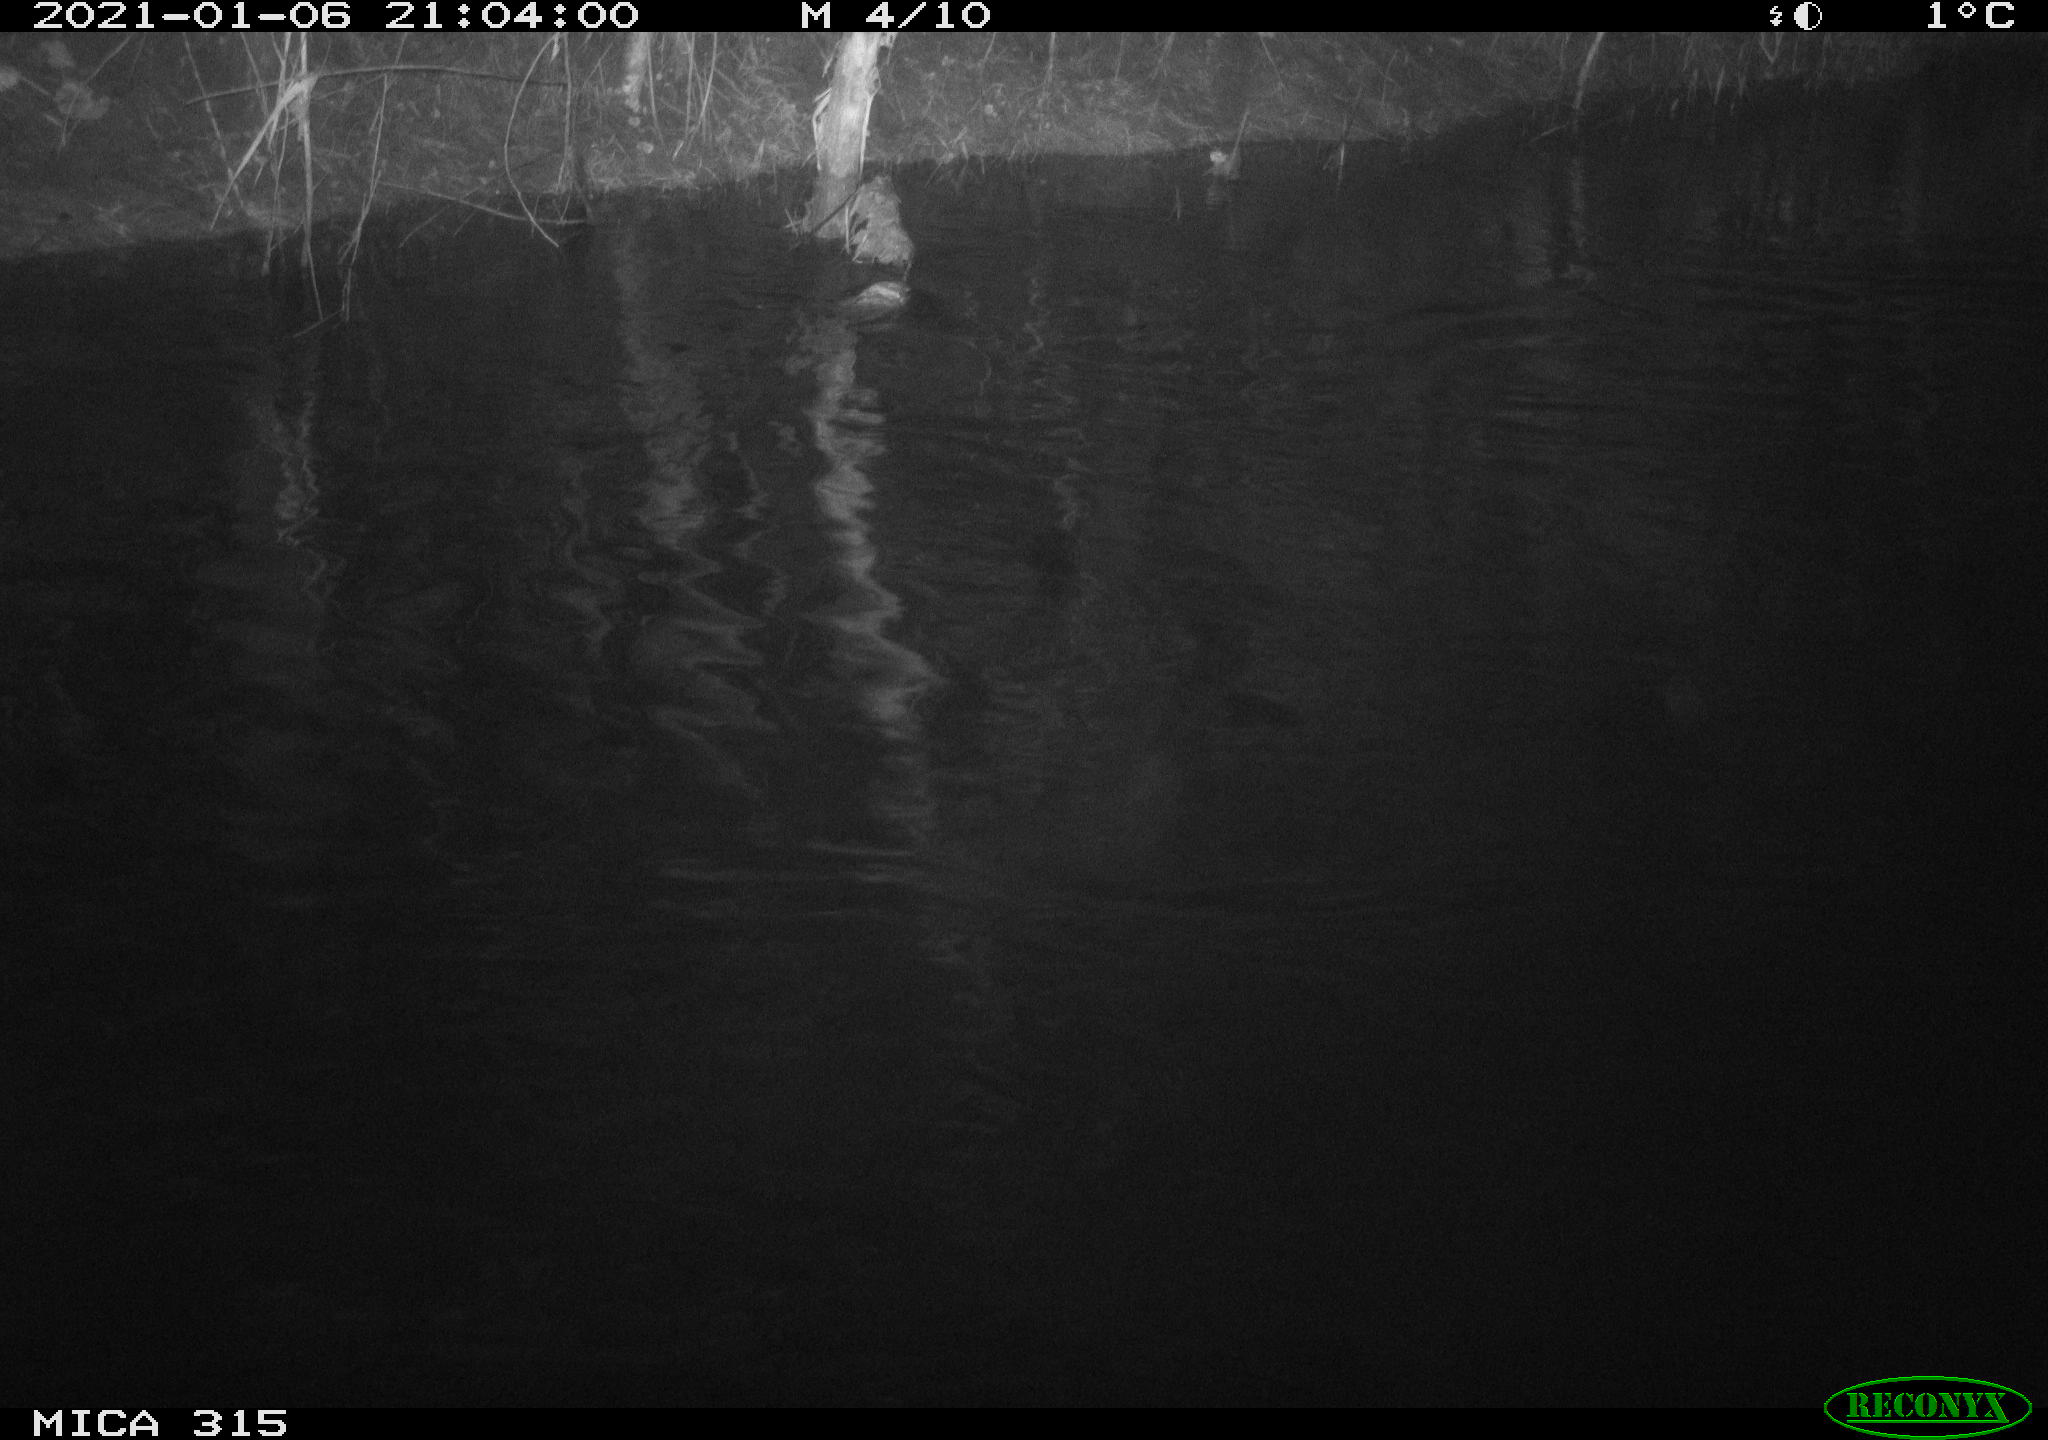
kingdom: Animalia
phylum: Chordata
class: Aves
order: Anseriformes
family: Anatidae
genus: Anas
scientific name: Anas platyrhynchos
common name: Mallard
